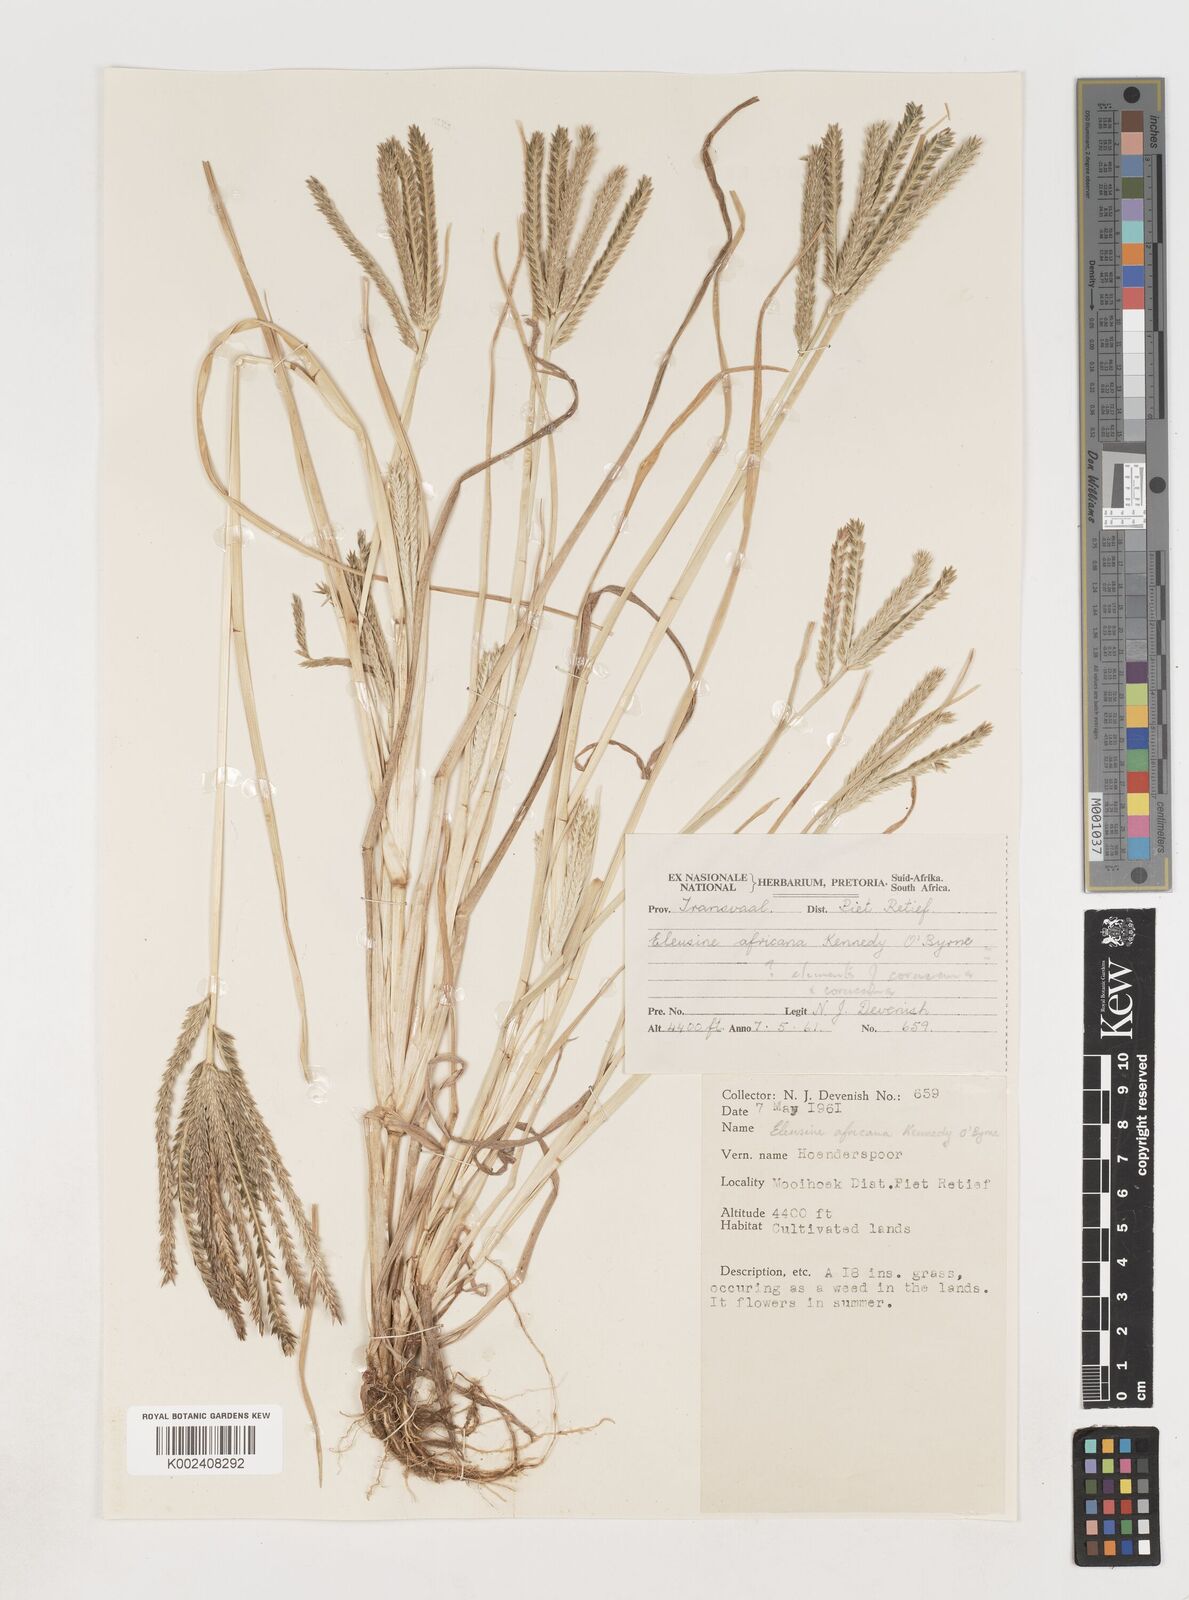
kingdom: Plantae
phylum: Tracheophyta
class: Liliopsida
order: Poales
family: Poaceae
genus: Eleusine
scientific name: Eleusine africana
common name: Wild african finger millet
